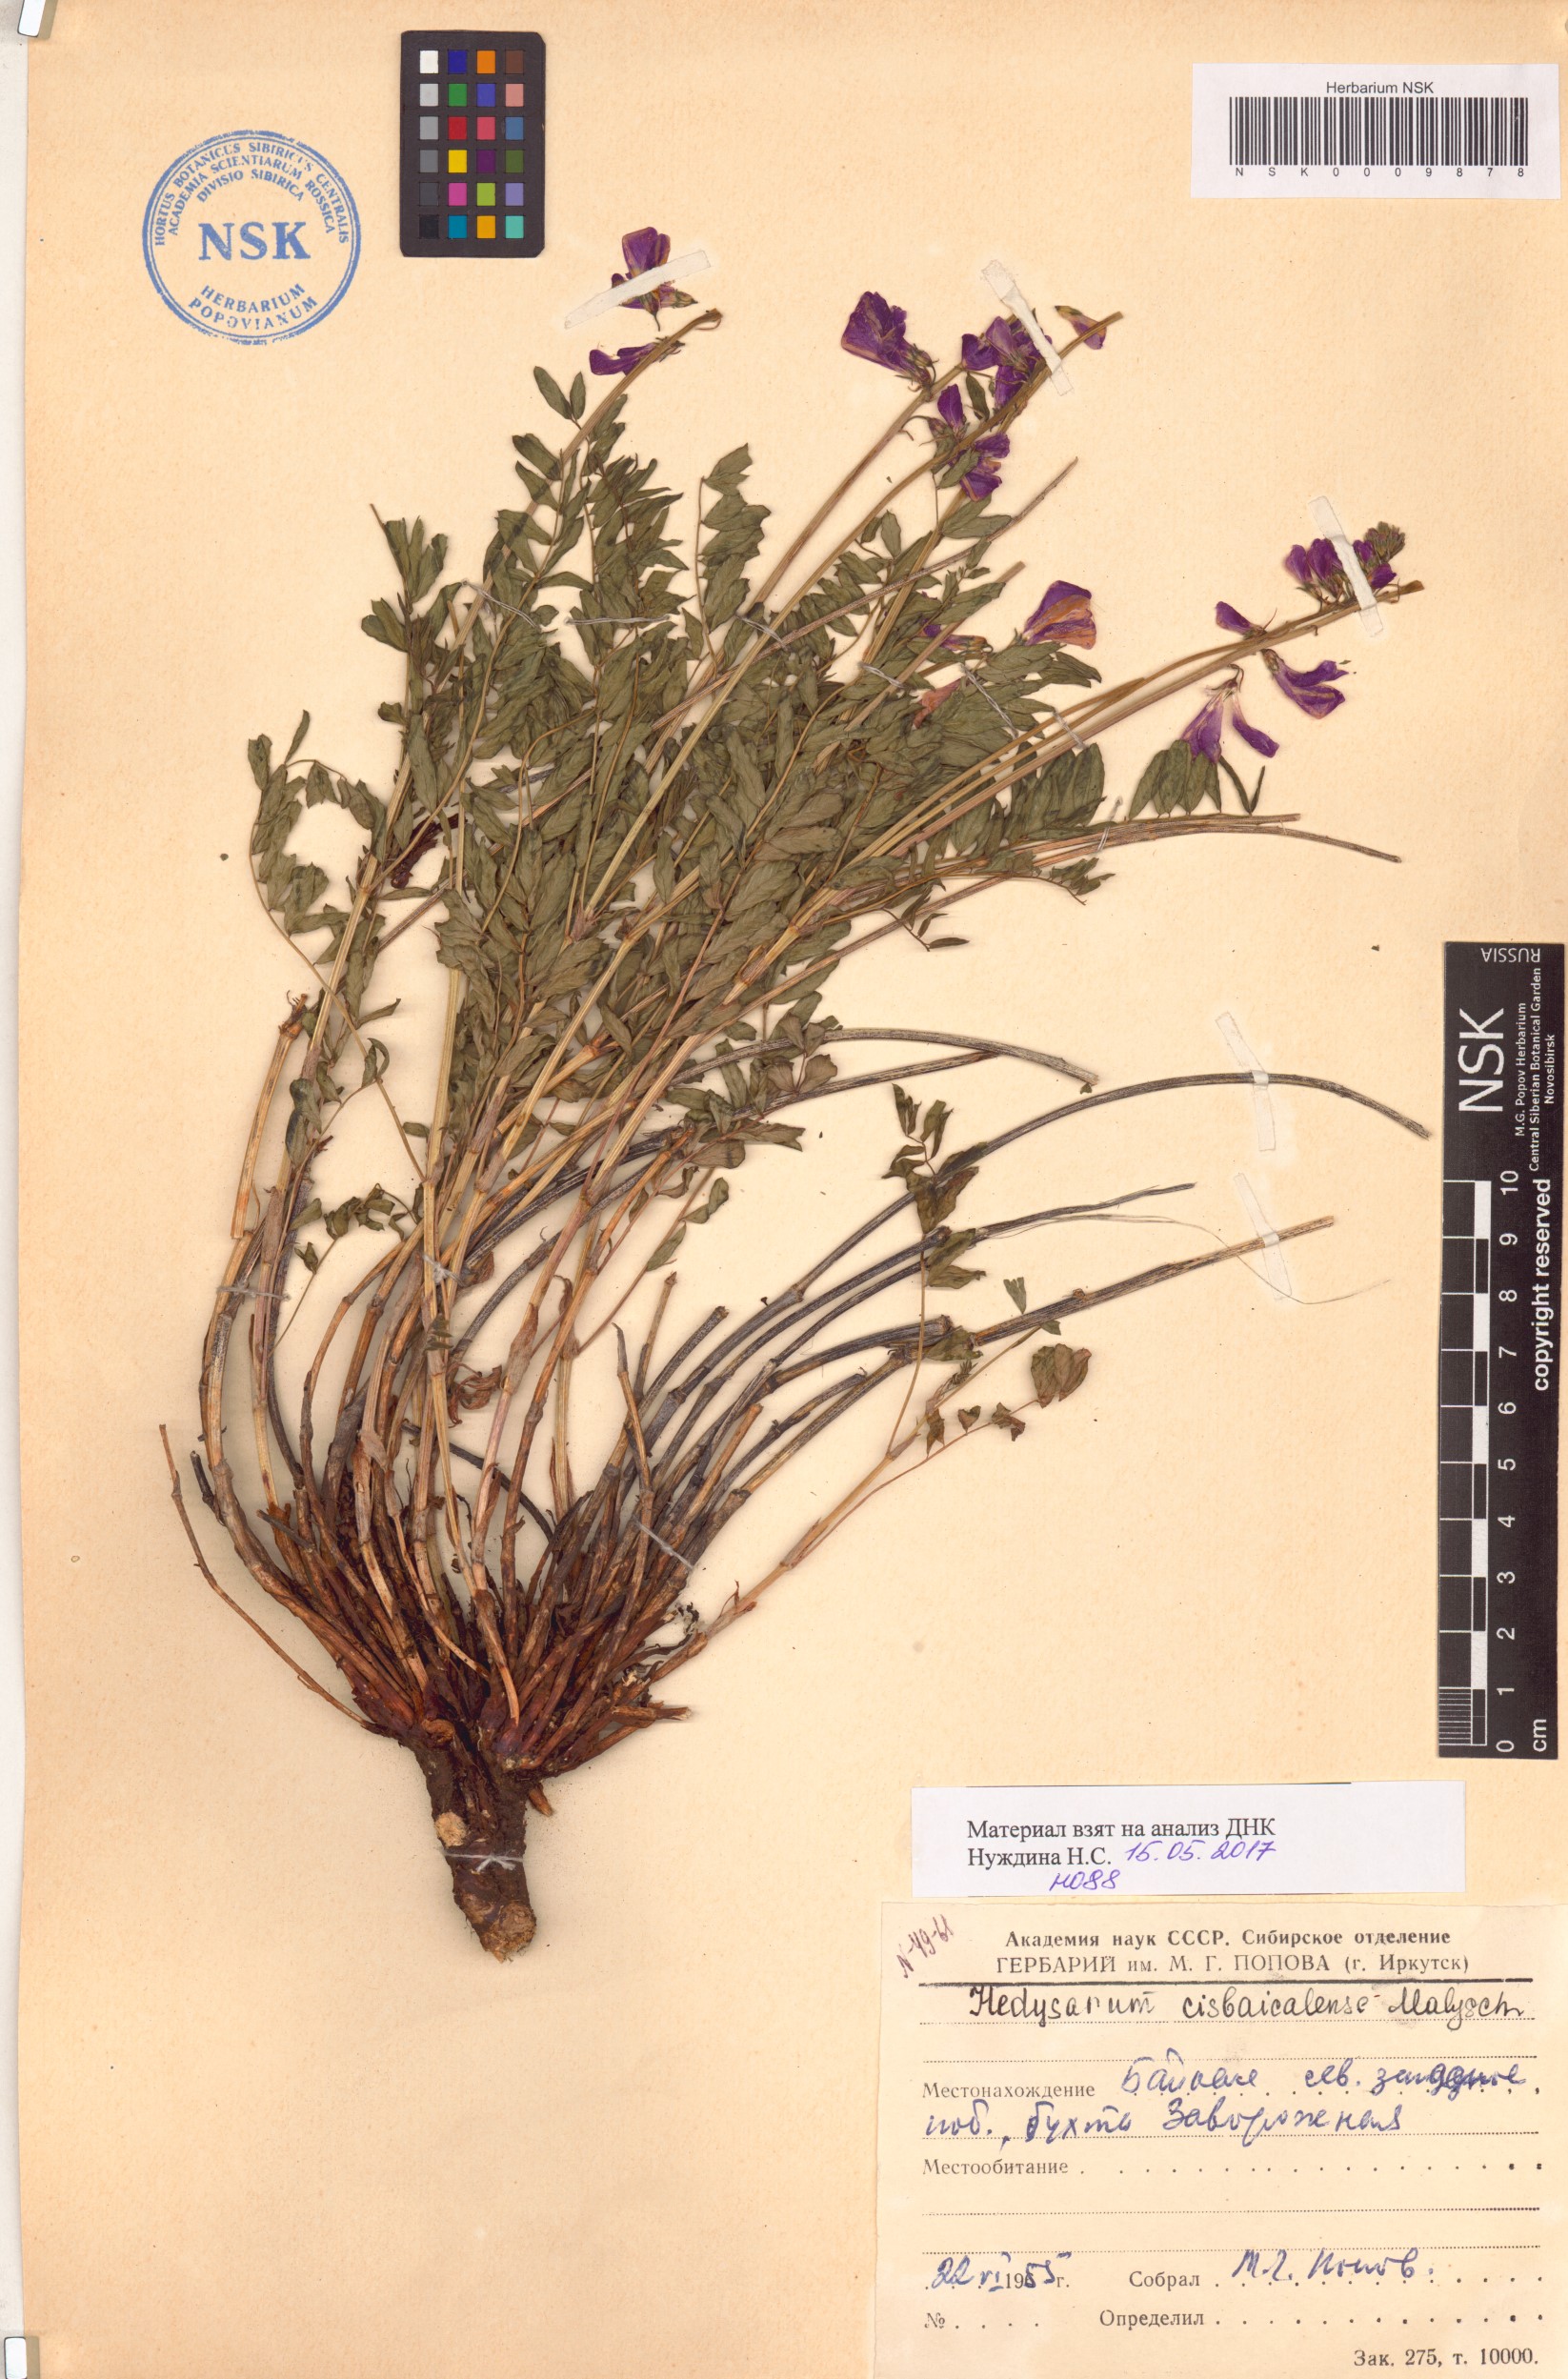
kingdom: Plantae
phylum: Tracheophyta
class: Magnoliopsida
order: Fabales
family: Fabaceae
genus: Hedysarum
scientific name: Hedysarum cisbaicalense
